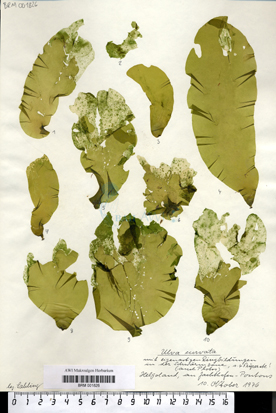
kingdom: Plantae
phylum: Chlorophyta
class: Ulvophyceae
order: Ulvales
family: Ulvaceae
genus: Ulva
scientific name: Ulva curvata
